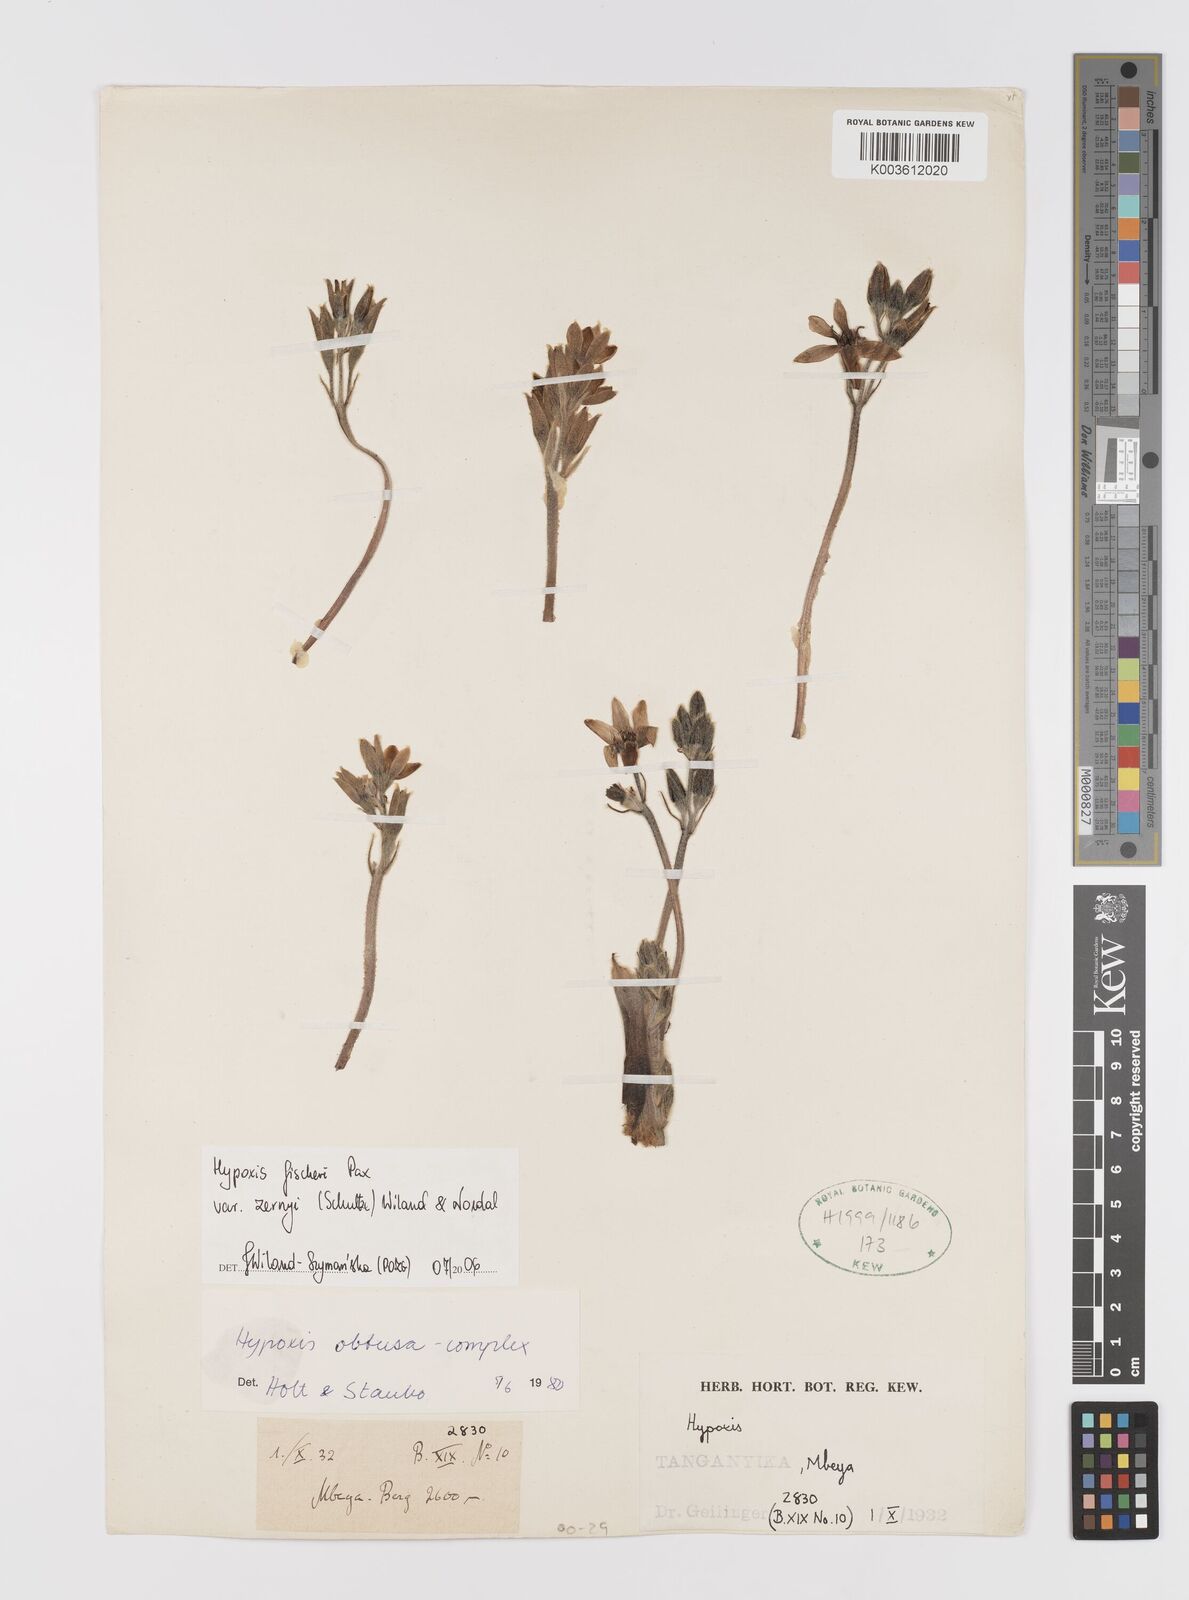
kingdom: Plantae
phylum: Tracheophyta
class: Liliopsida
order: Asparagales
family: Hypoxidaceae
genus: Hypoxis
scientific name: Hypoxis fischeri
